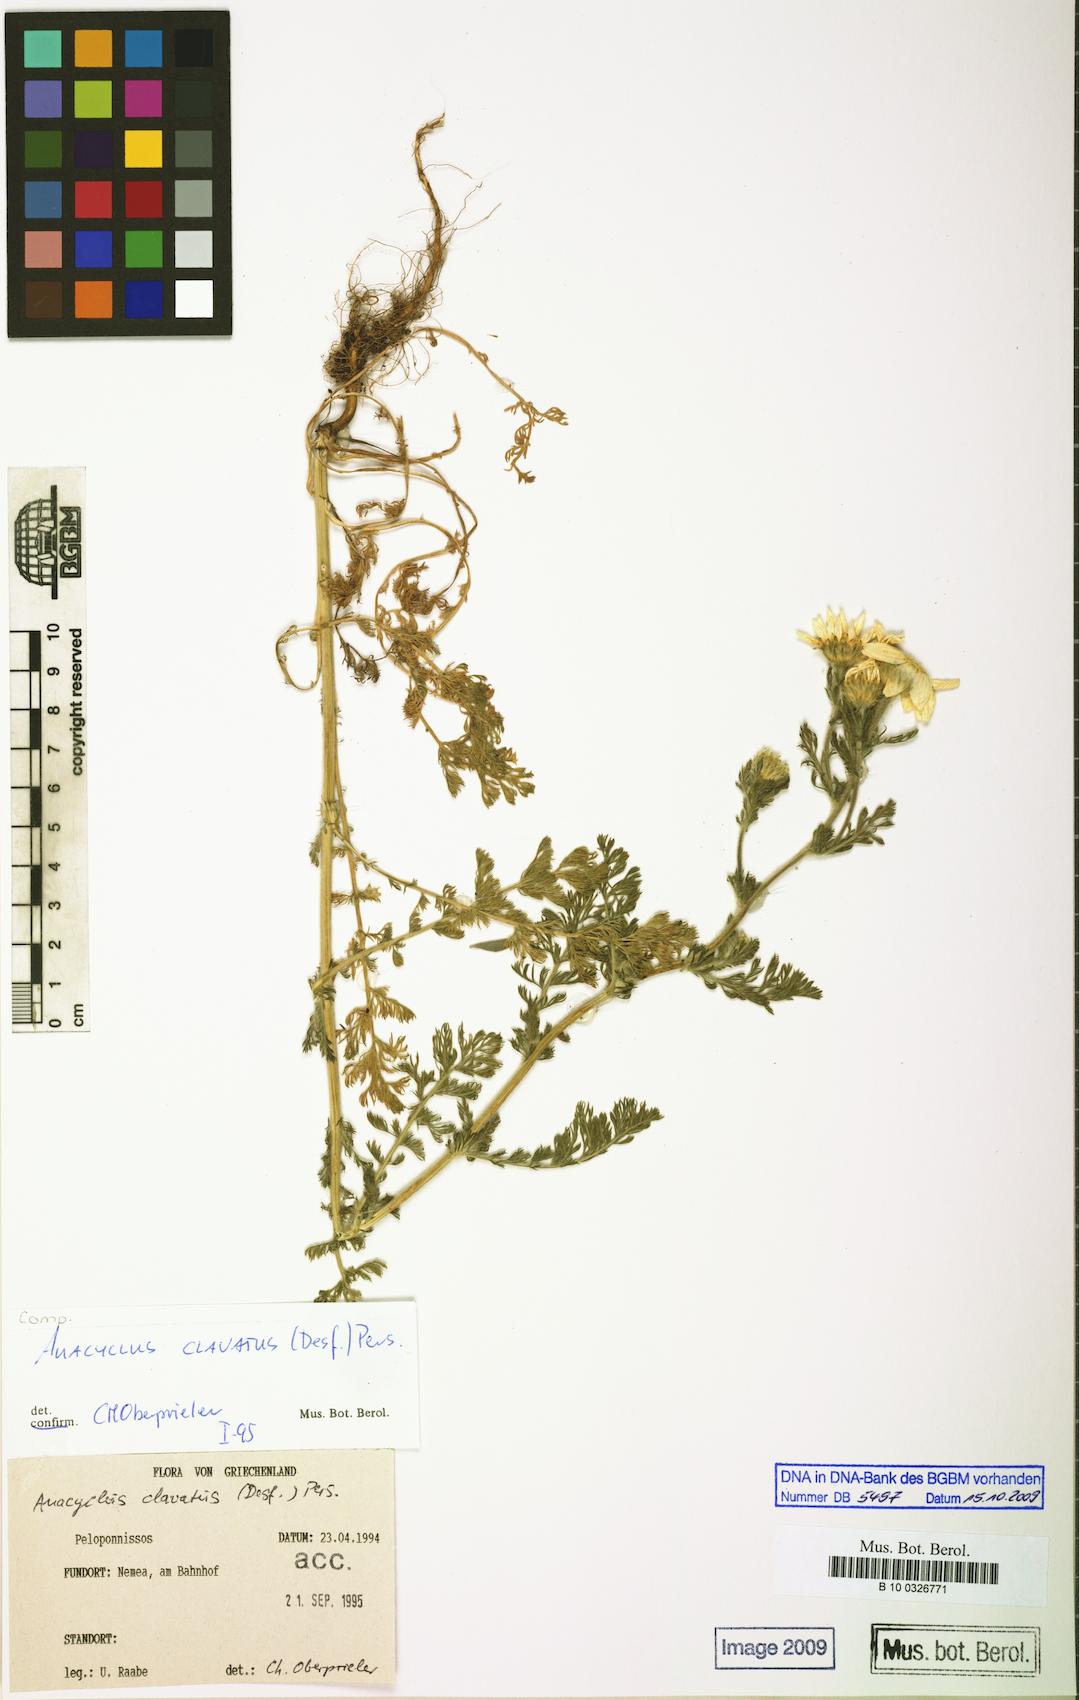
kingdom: Plantae
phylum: Tracheophyta
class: Magnoliopsida
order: Asterales
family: Asteraceae
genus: Anacyclus
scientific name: Anacyclus clavatus
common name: Whitebuttons
